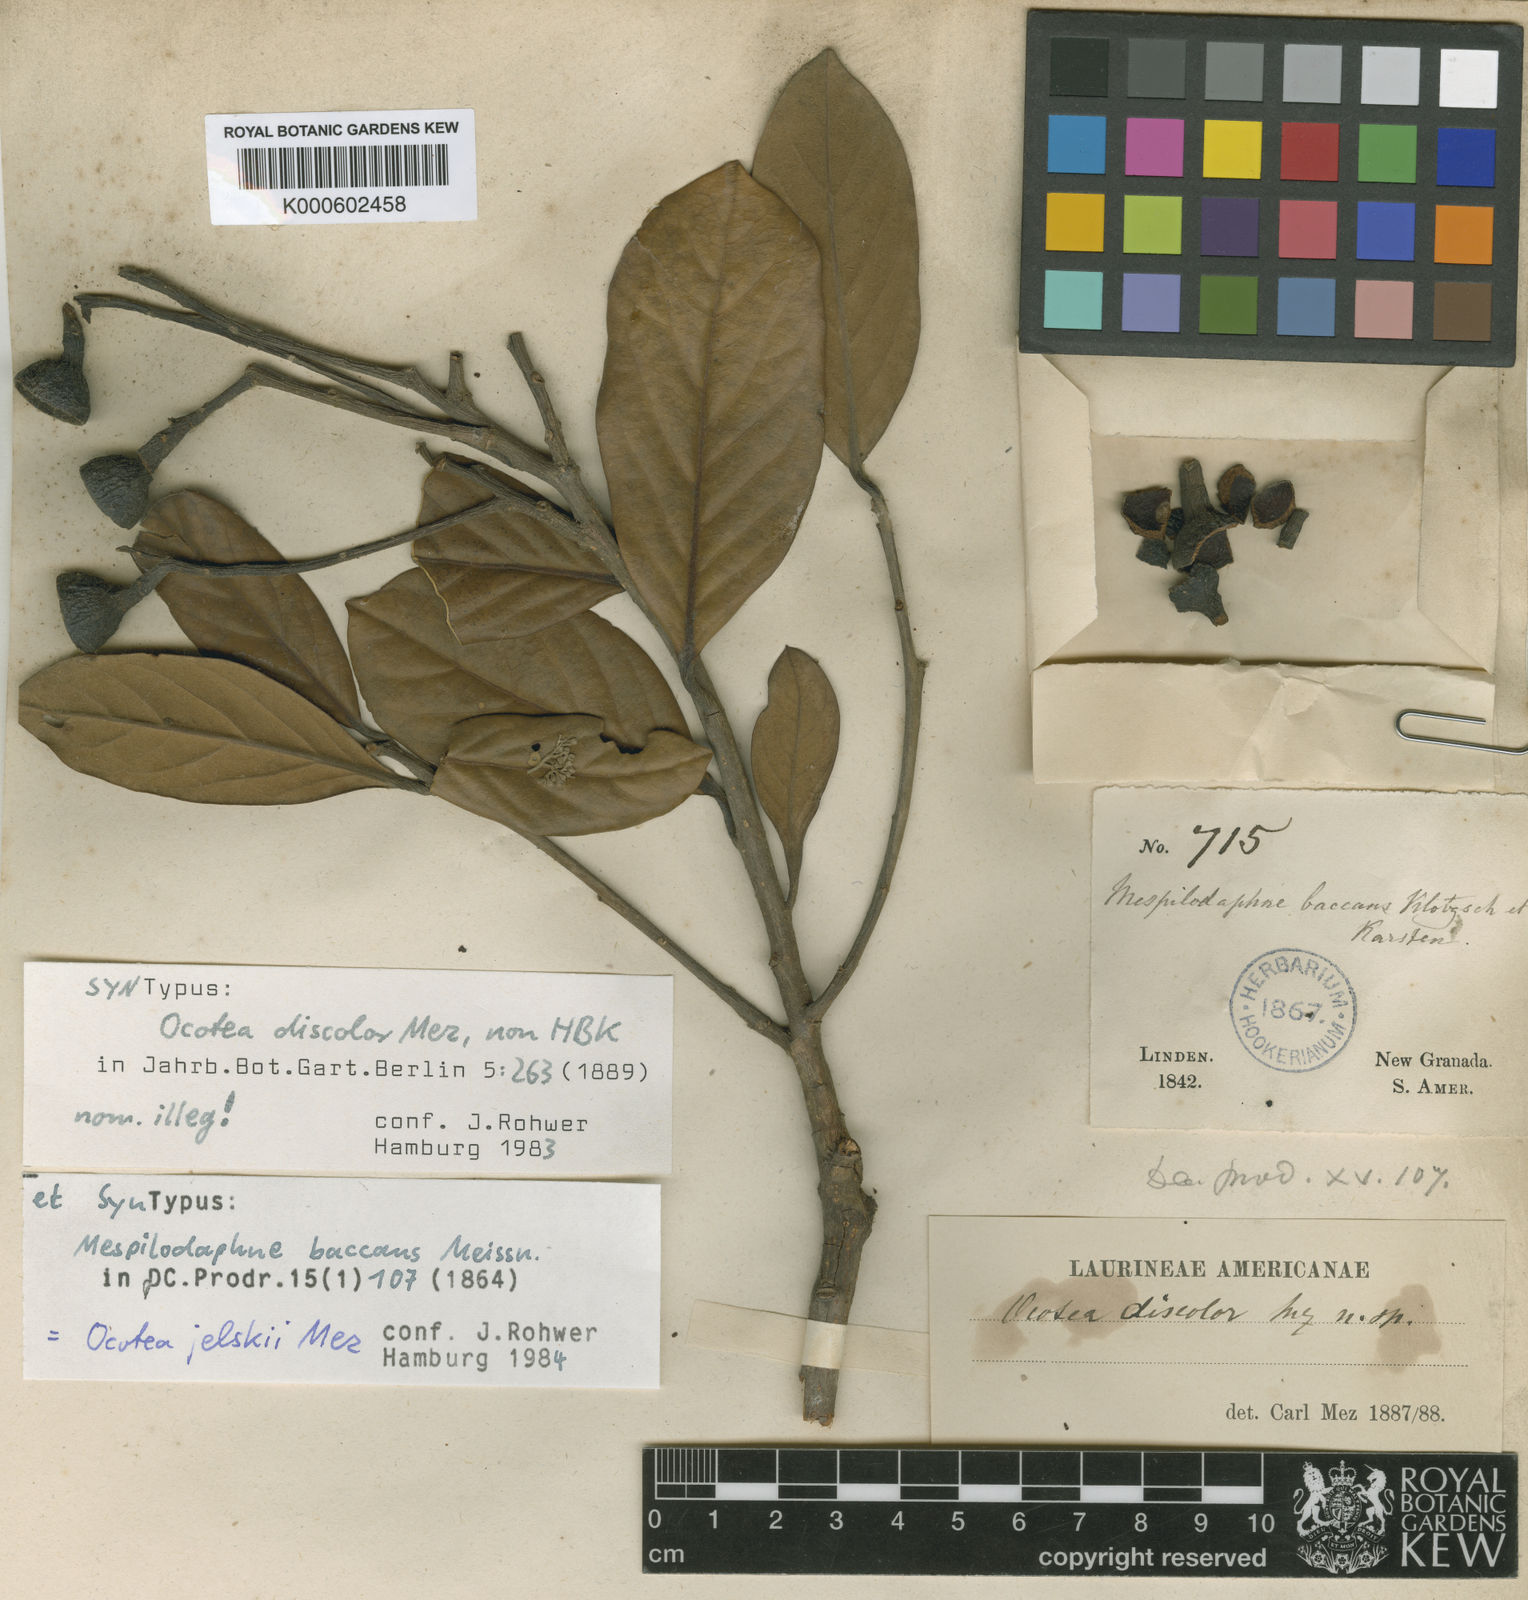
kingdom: Plantae
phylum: Tracheophyta
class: Magnoliopsida
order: Laurales
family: Lauraceae
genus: Ocotea
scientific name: Ocotea jelskii
